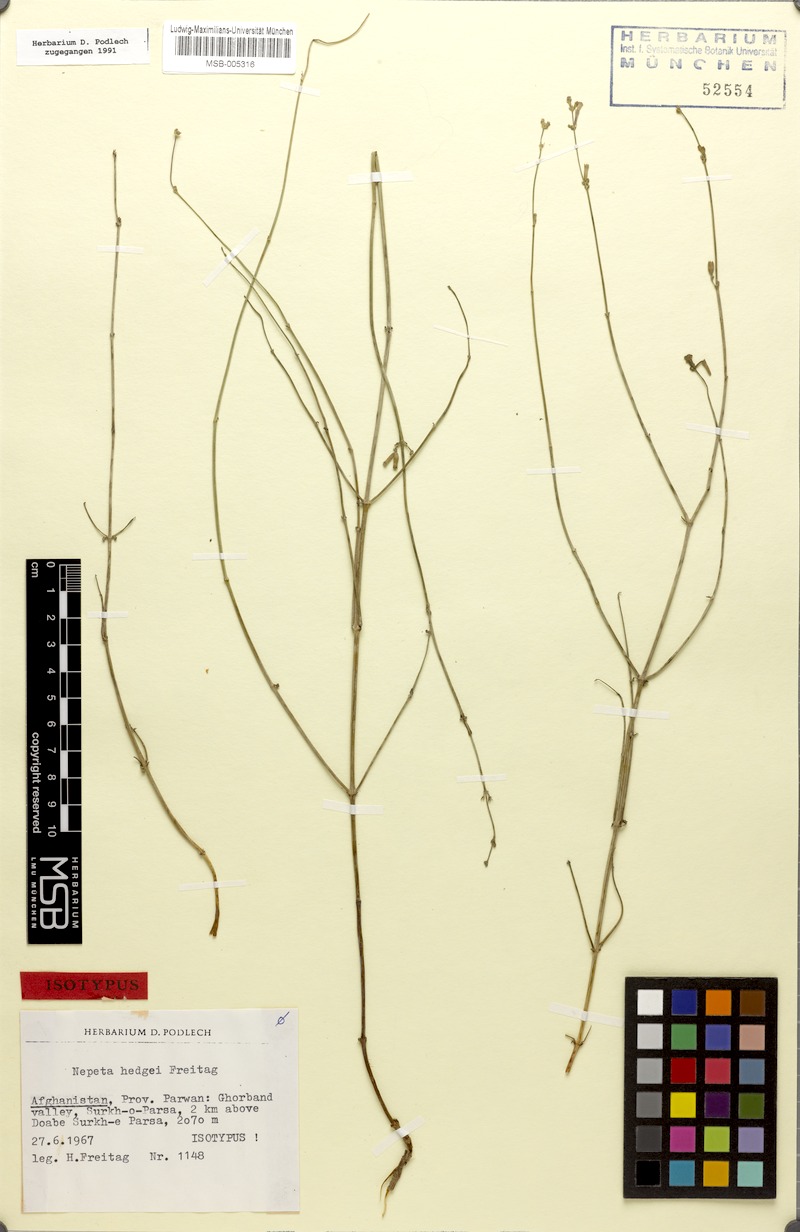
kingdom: Plantae
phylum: Tracheophyta
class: Magnoliopsida
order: Lamiales
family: Lamiaceae
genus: Nepeta
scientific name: Nepeta hedgei
